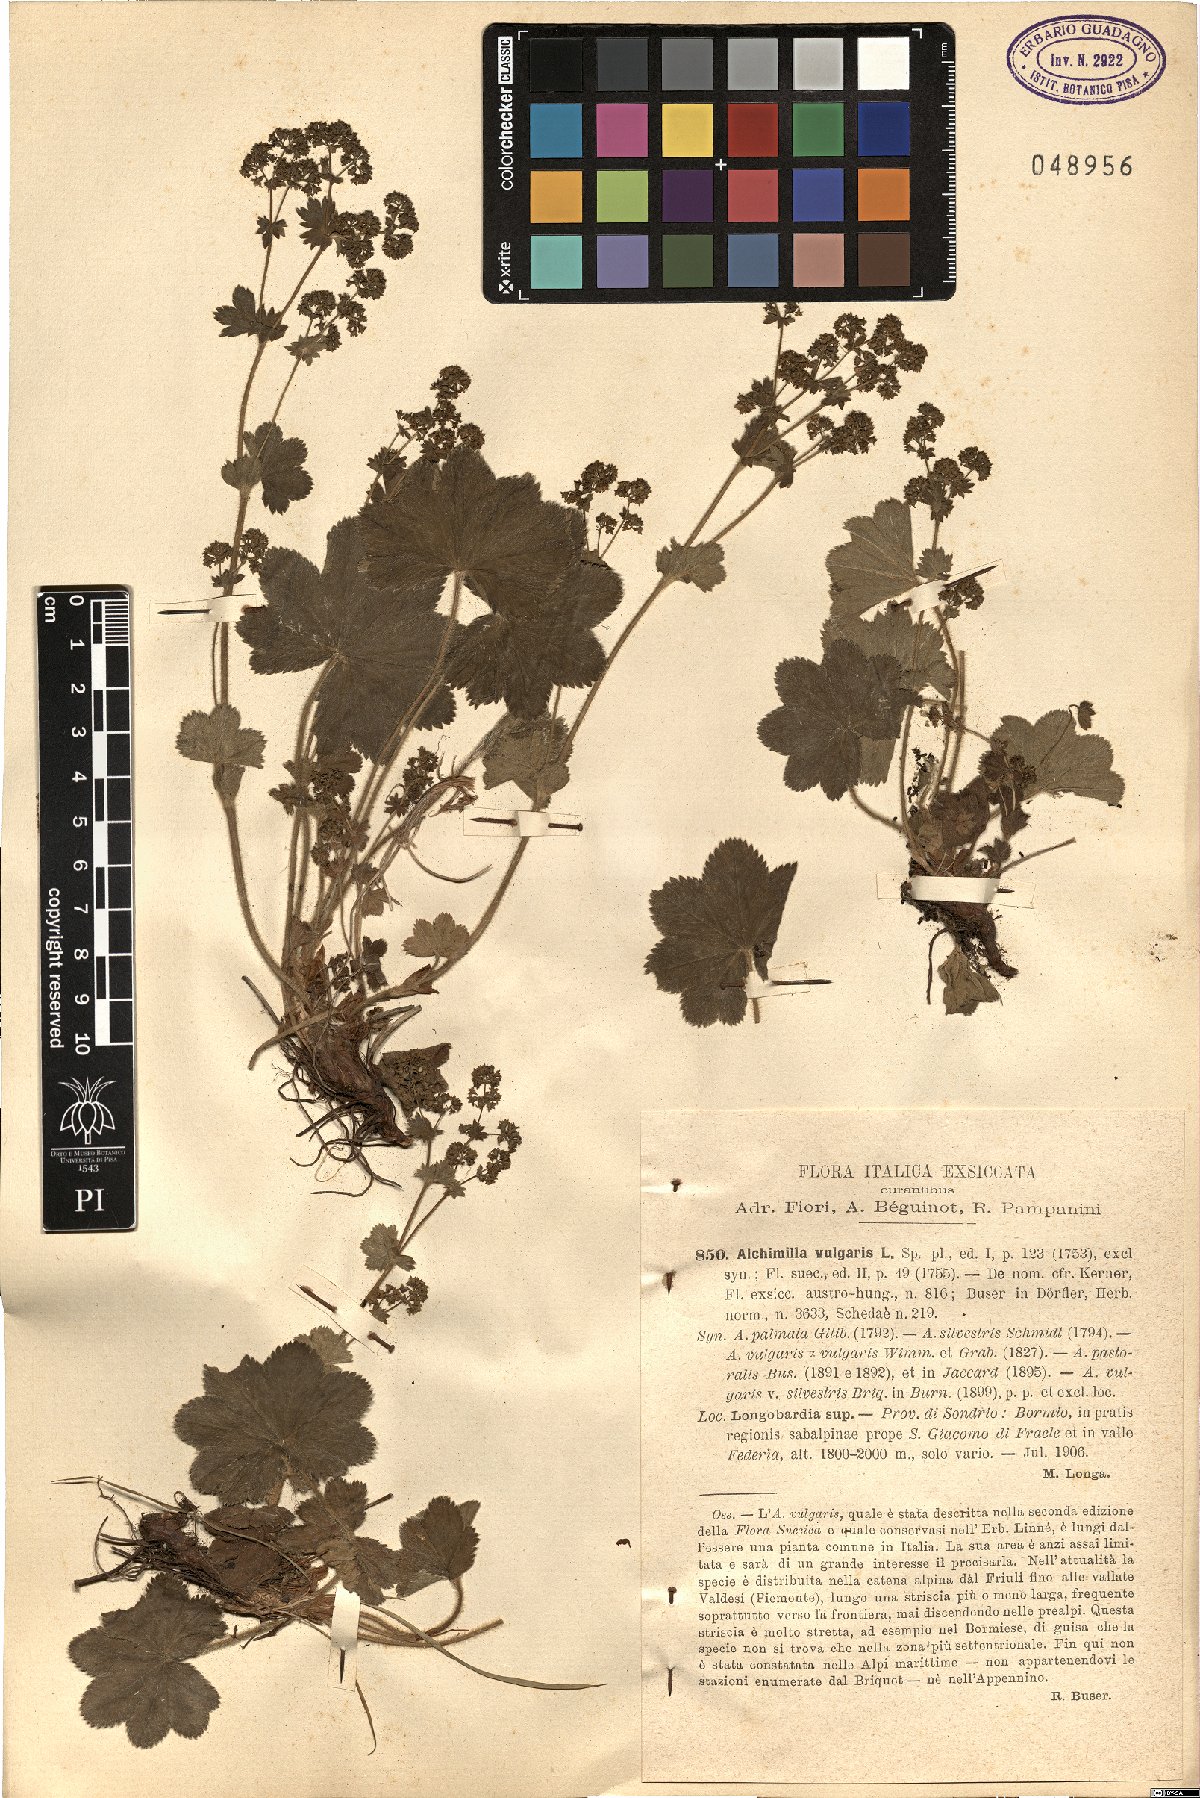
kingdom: Plantae
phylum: Tracheophyta
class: Magnoliopsida
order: Rosales
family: Rosaceae
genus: Alchemilla
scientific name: Alchemilla monticola
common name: Hairy lady's mantle
